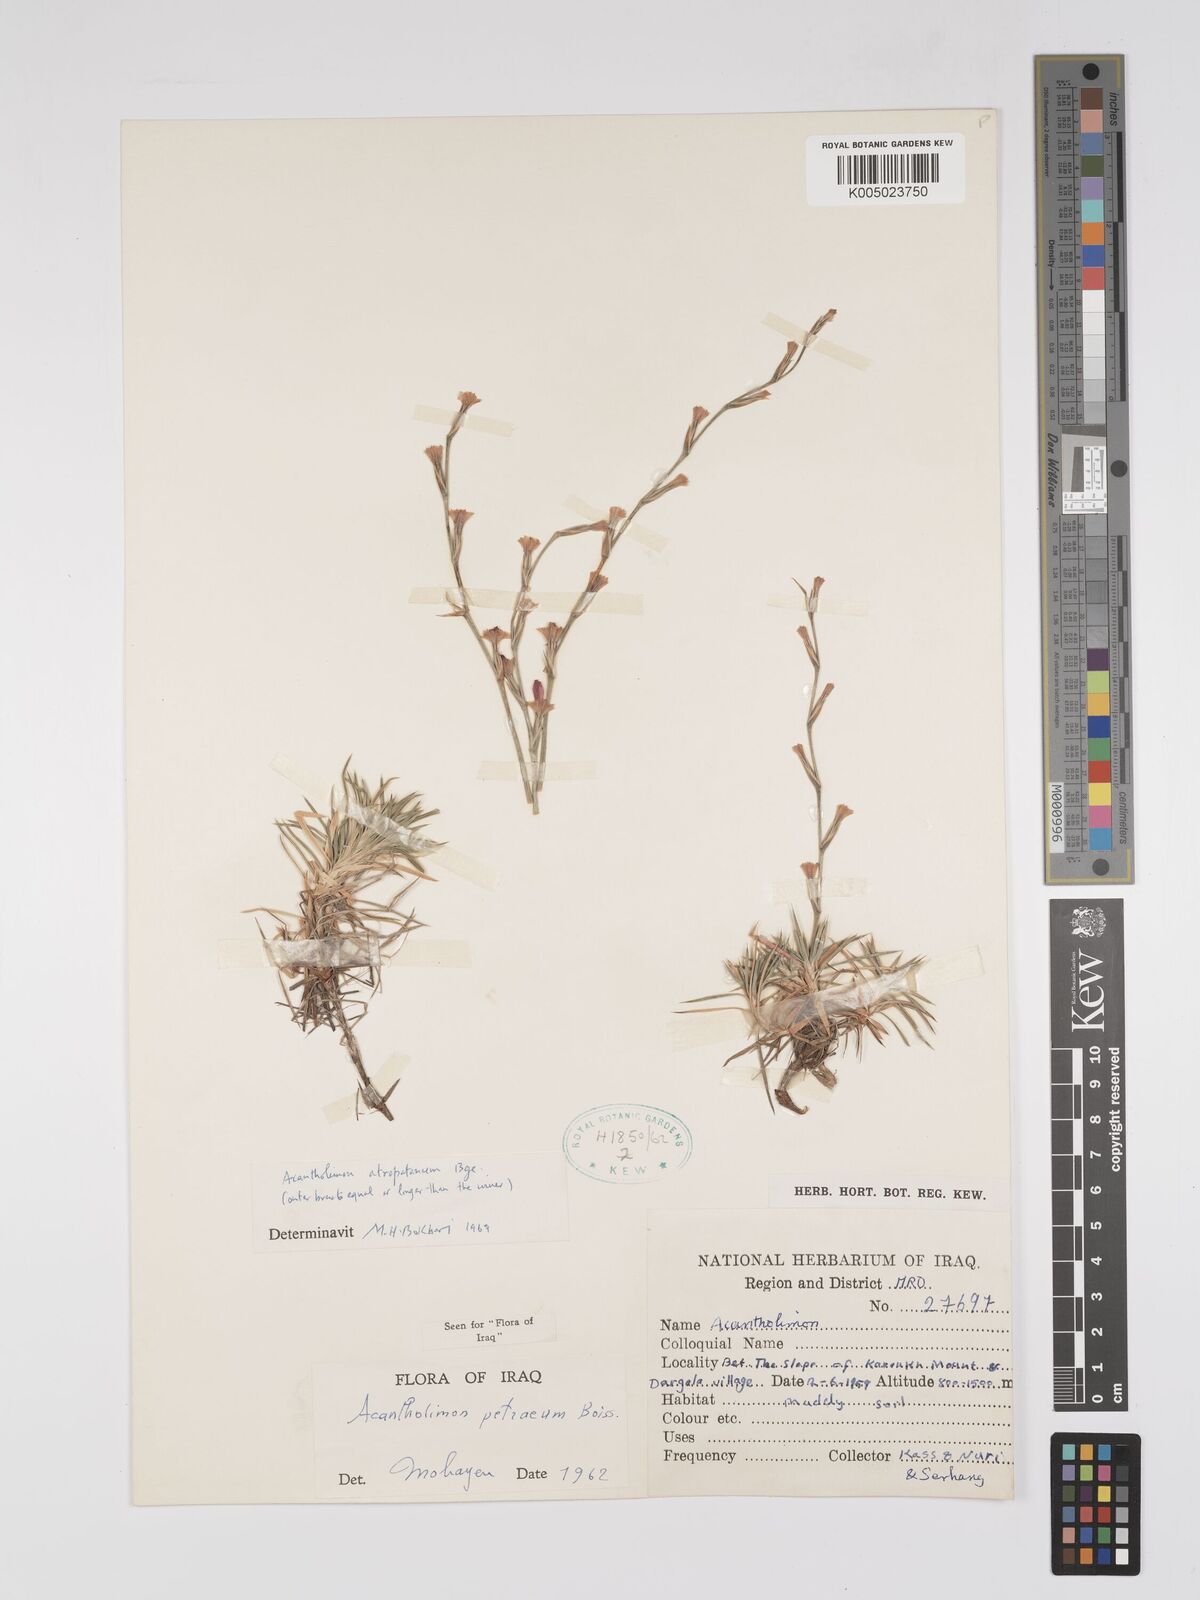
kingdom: Plantae
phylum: Tracheophyta
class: Magnoliopsida
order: Caryophyllales
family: Plumbaginaceae
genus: Acantholimon
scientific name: Acantholimon petraeum
